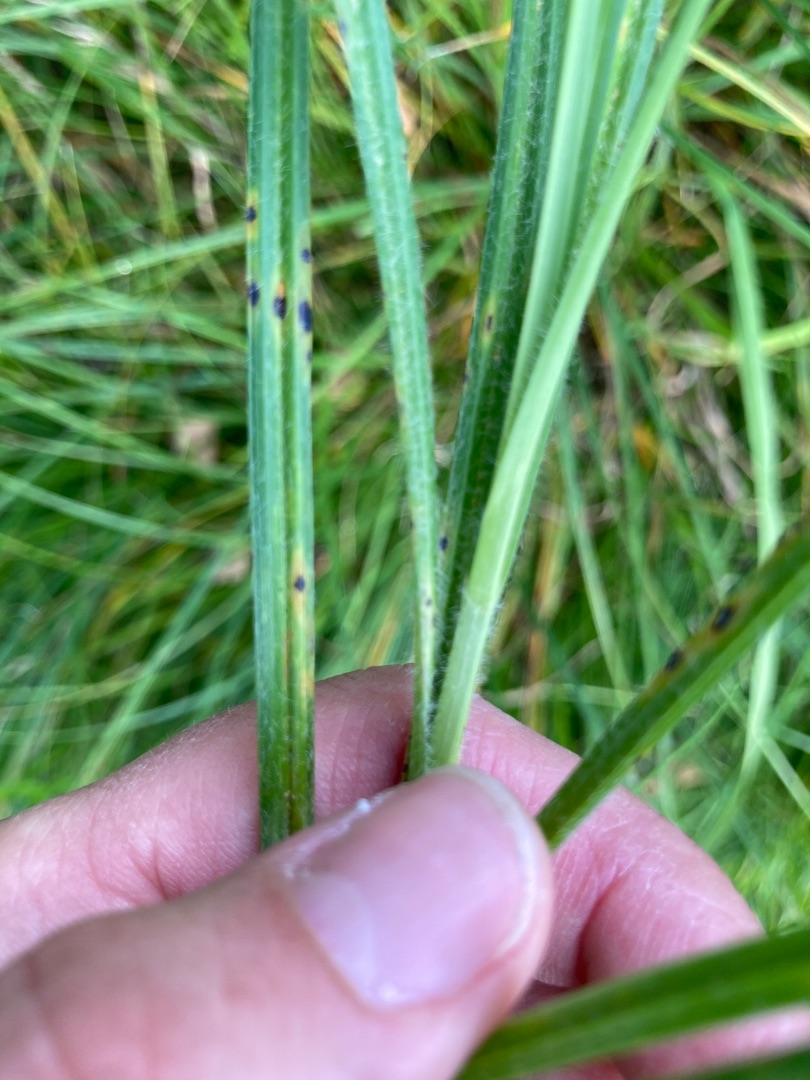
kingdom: Plantae
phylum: Tracheophyta
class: Liliopsida
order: Poales
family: Cyperaceae
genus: Carex
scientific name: Carex hirta
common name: Håret star
